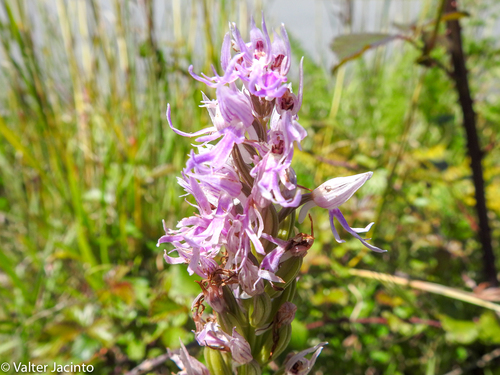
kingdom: Plantae
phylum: Tracheophyta
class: Liliopsida
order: Asparagales
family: Orchidaceae
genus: Orchis
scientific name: Orchis italica
